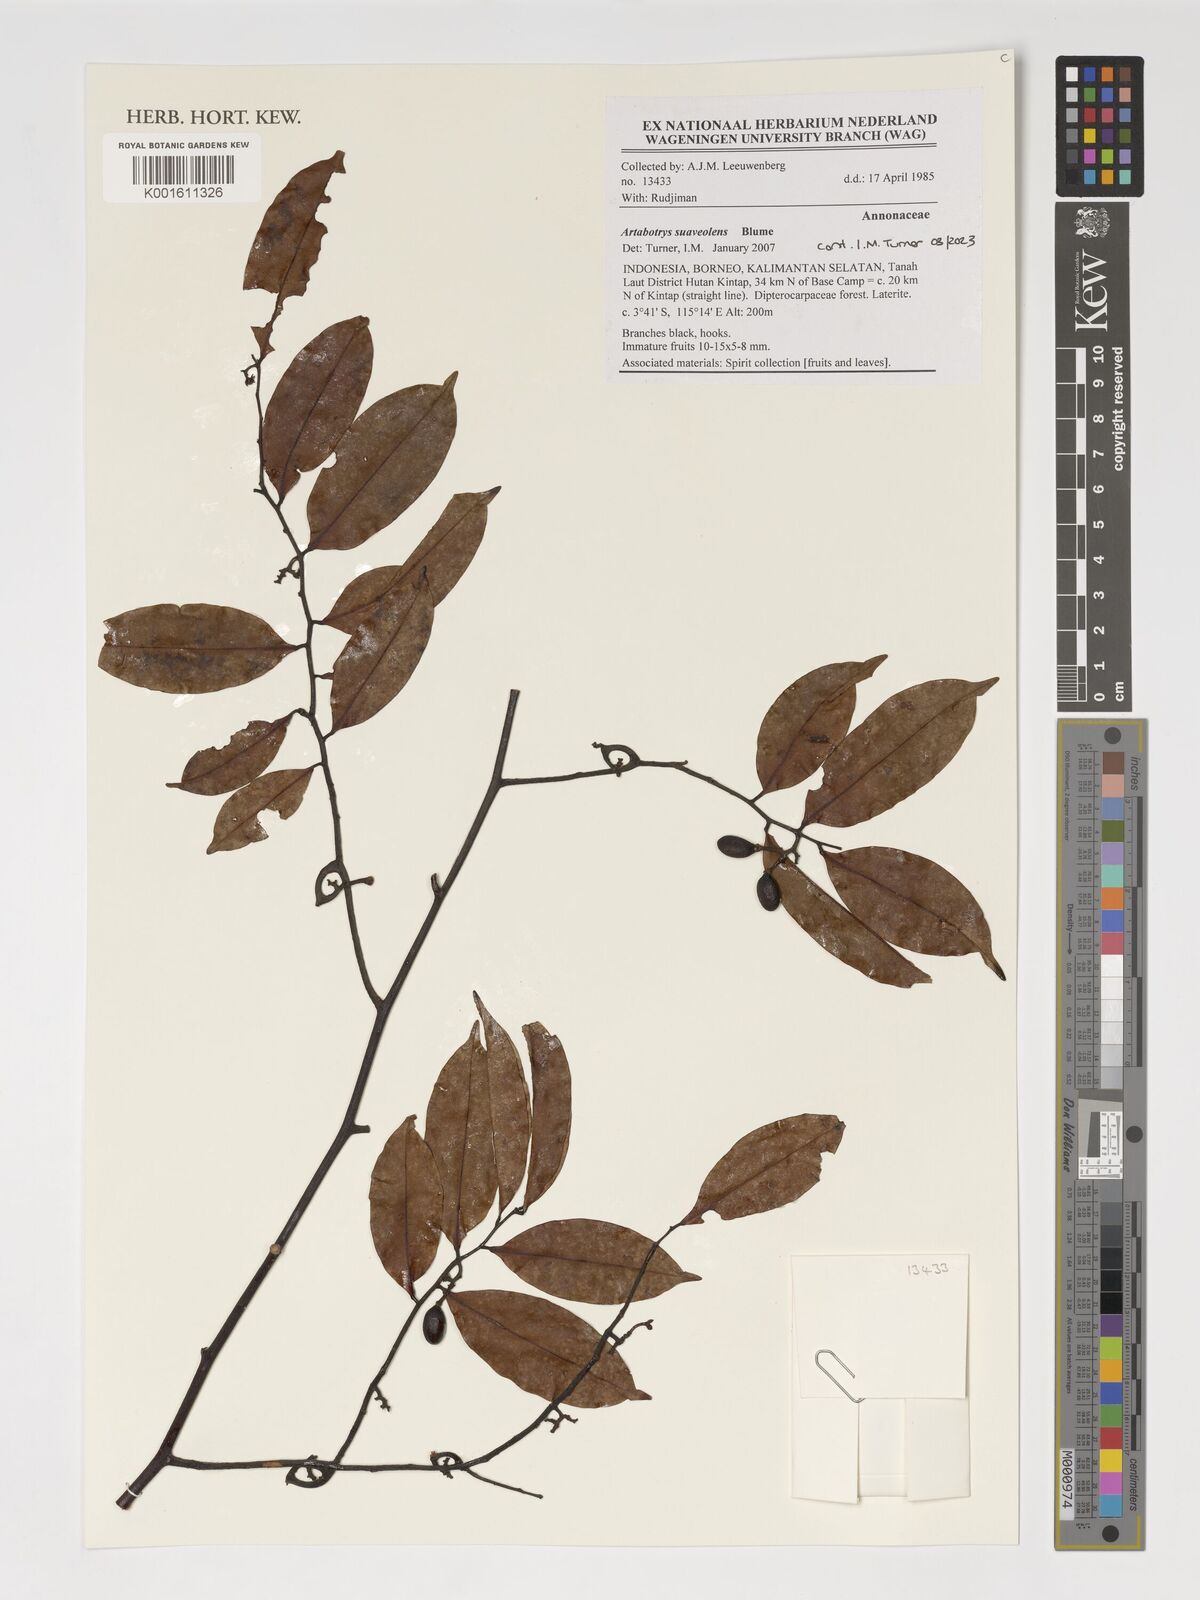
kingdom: Plantae
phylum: Tracheophyta
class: Magnoliopsida
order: Magnoliales
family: Annonaceae
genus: Artabotrys
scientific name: Artabotrys suaveolens
